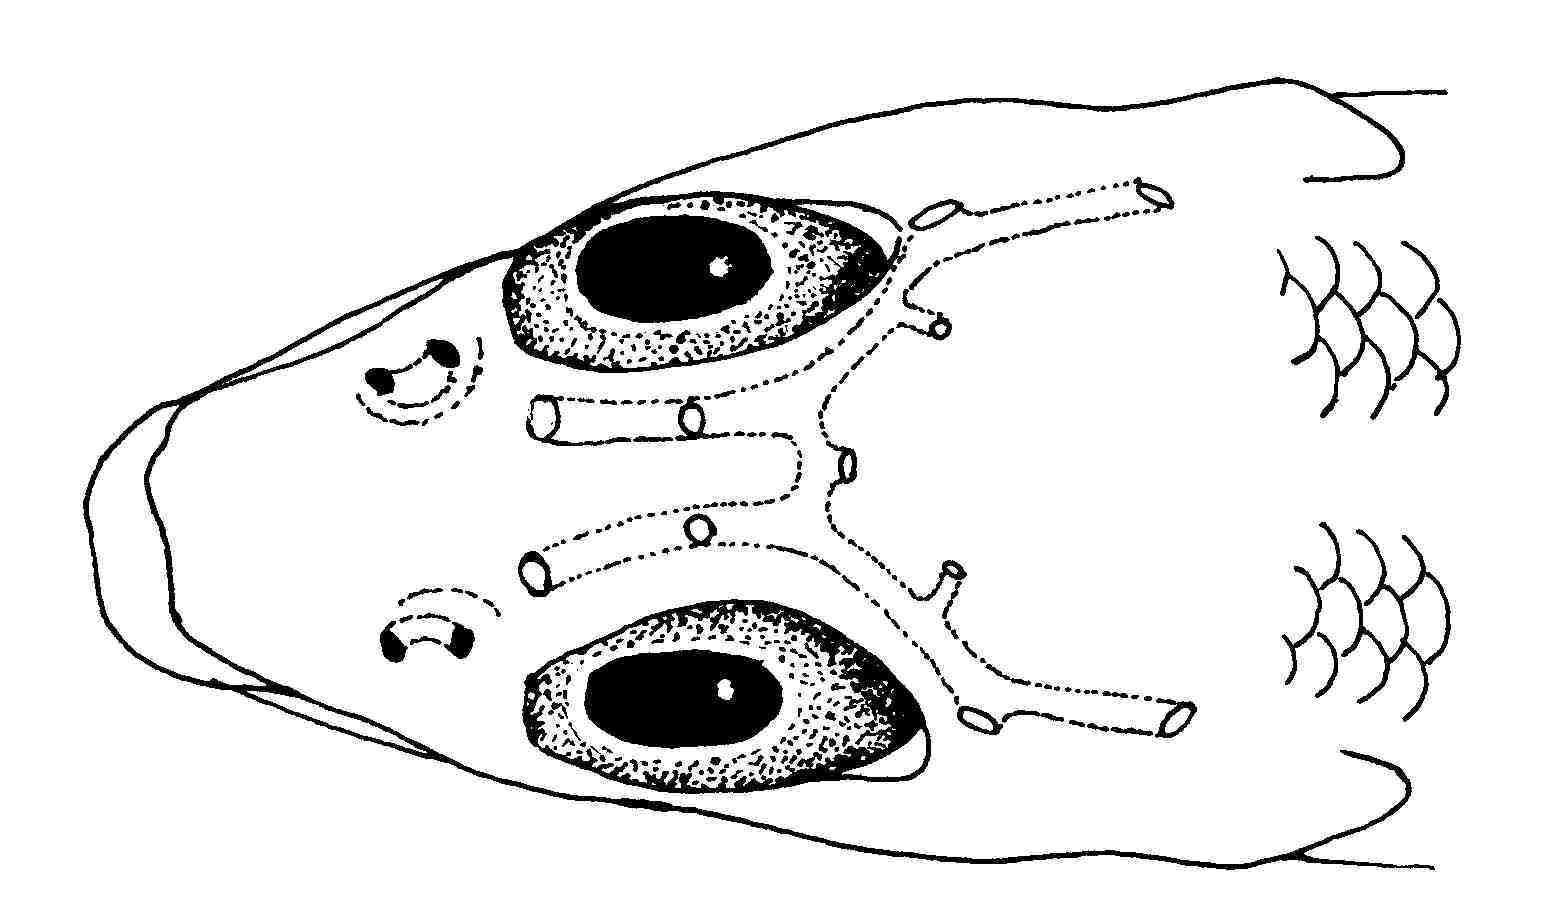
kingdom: Animalia
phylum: Chordata
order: Perciformes
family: Gobiidae
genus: Bryaninops
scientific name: Bryaninops amplus
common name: Large whip goby
